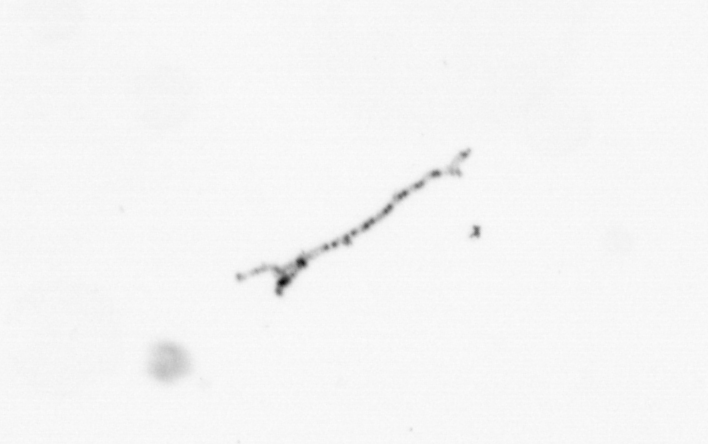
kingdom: Chromista
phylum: Ochrophyta
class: Bacillariophyceae
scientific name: Bacillariophyceae
